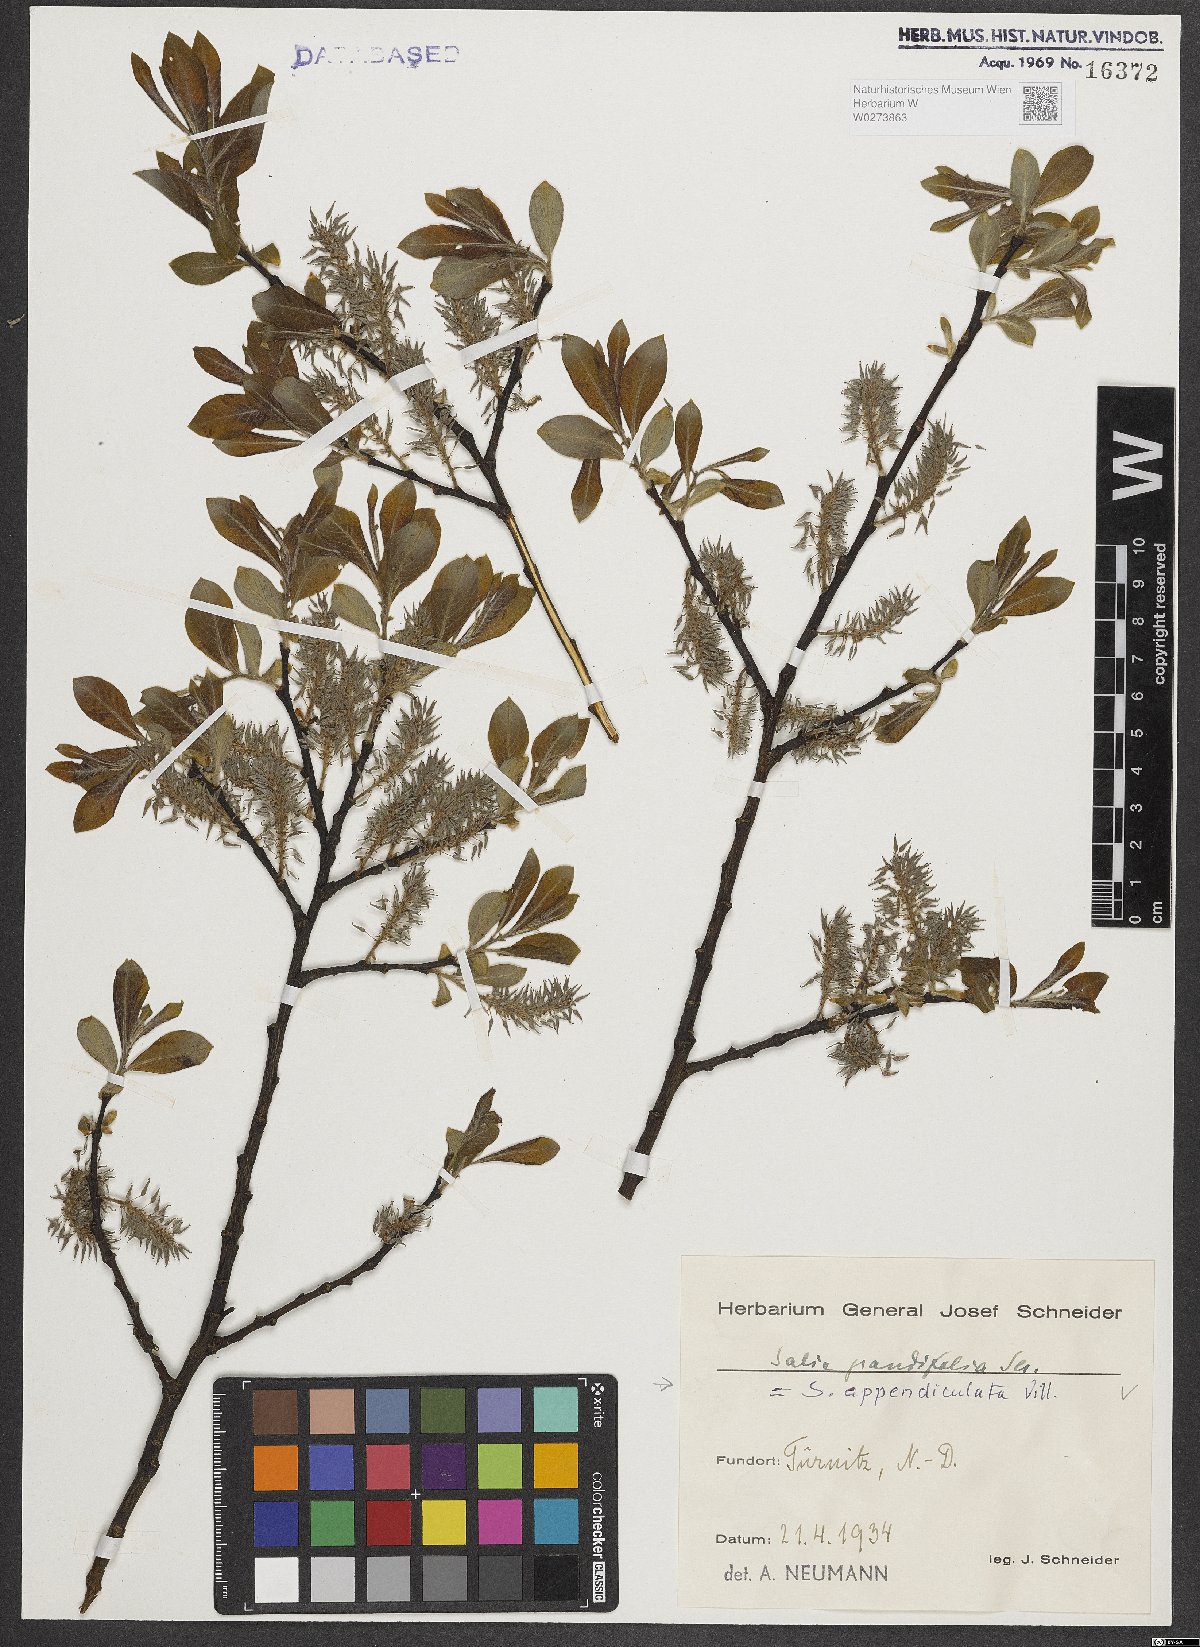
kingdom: Plantae
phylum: Tracheophyta
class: Magnoliopsida
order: Malpighiales
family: Salicaceae
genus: Salix
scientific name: Salix appendiculata
